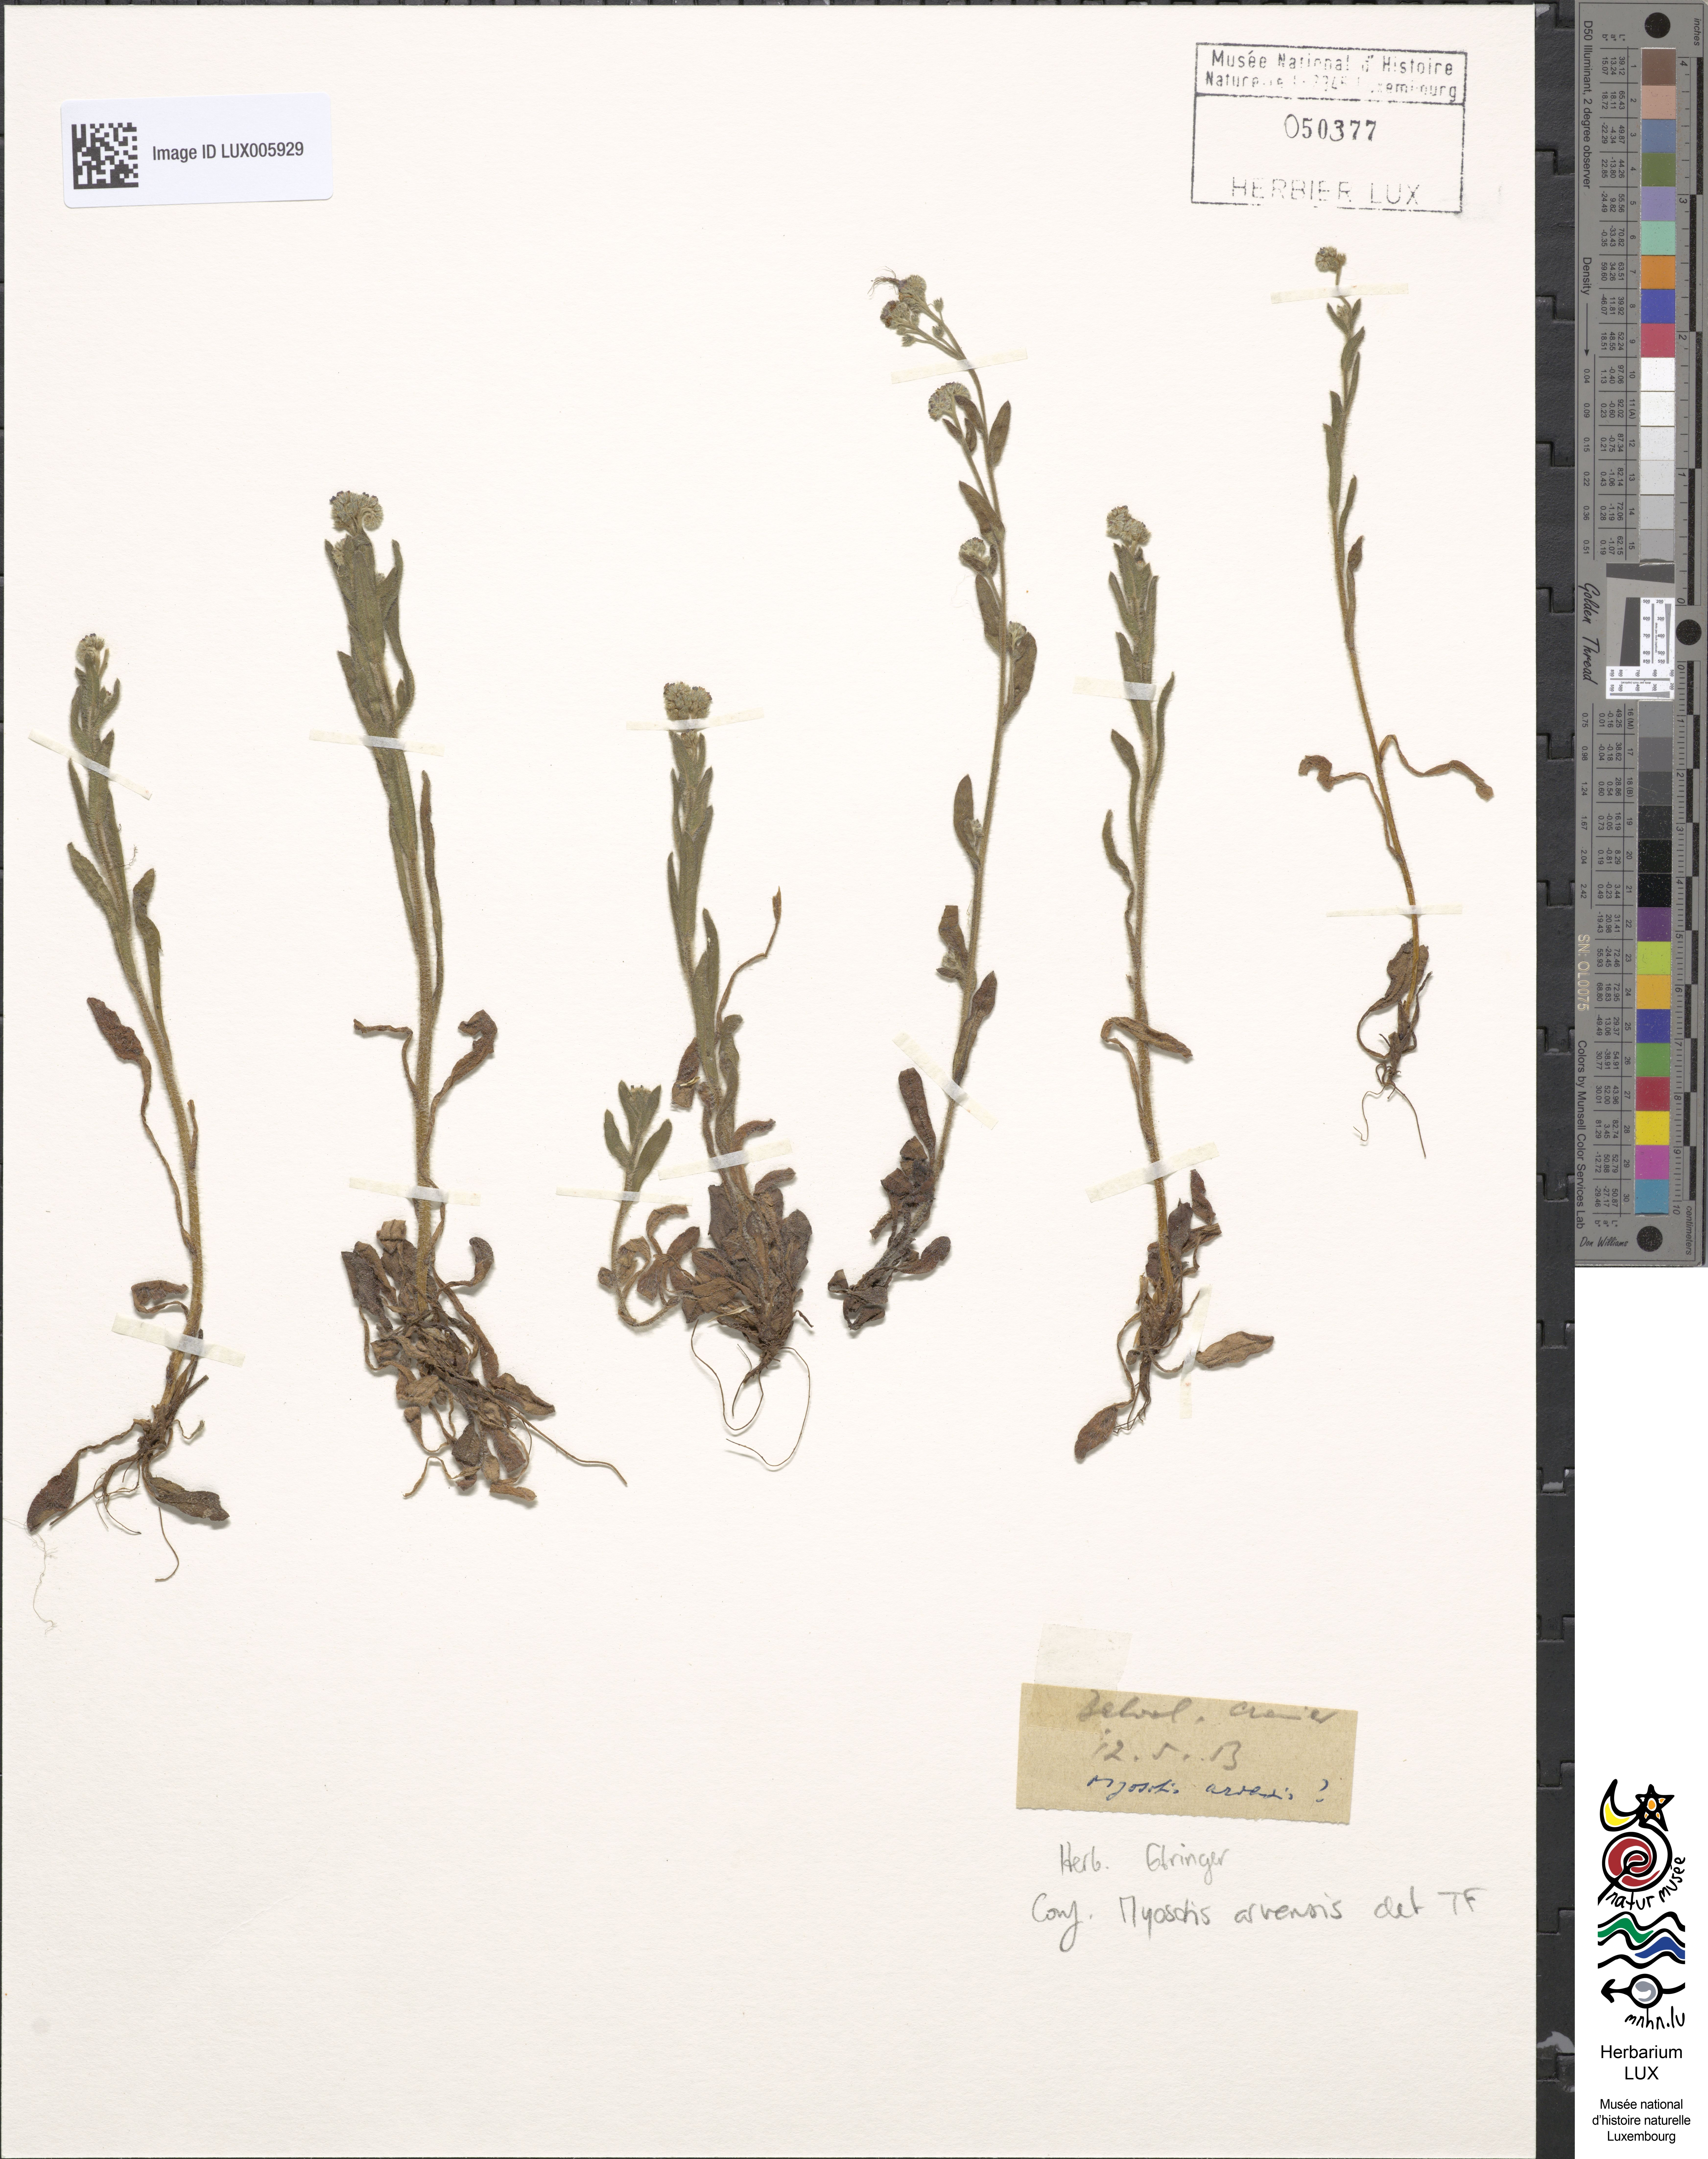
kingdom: Plantae
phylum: Tracheophyta
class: Magnoliopsida
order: Boraginales
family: Boraginaceae
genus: Myosotis
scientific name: Myosotis arvensis
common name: Field forget-me-not
